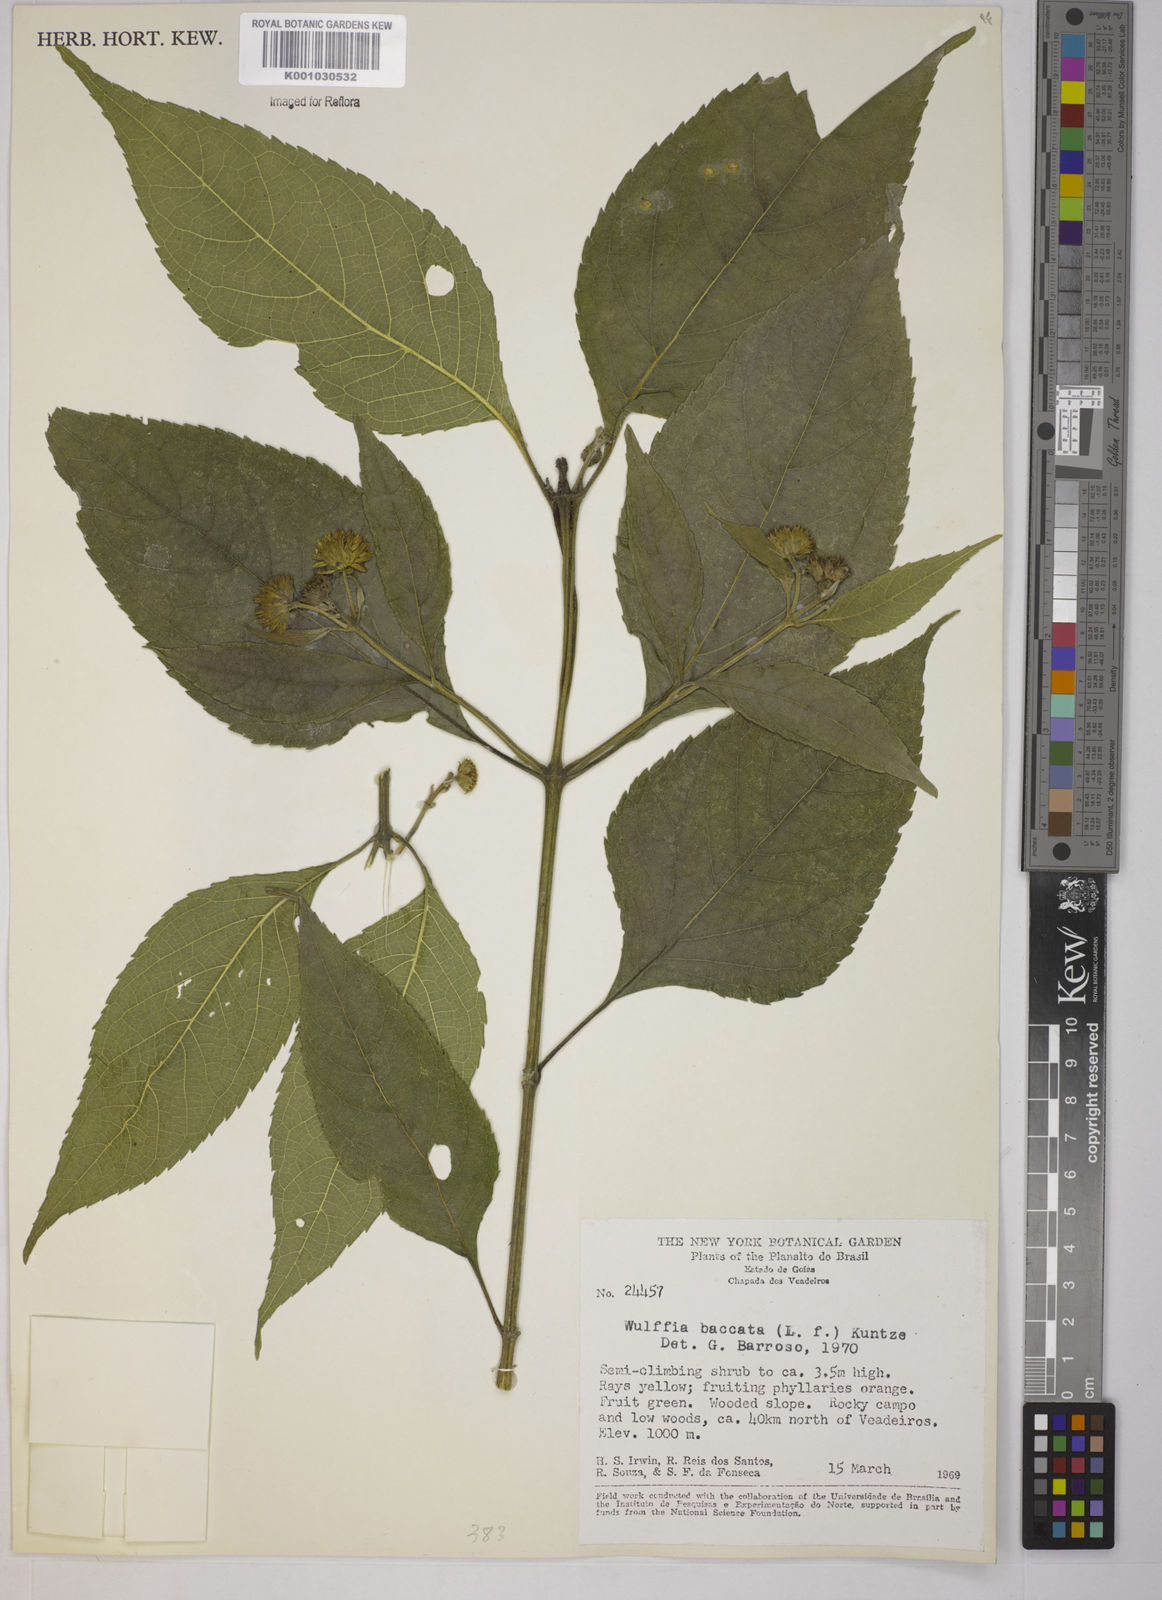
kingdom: Plantae
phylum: Tracheophyta
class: Magnoliopsida
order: Asterales
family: Asteraceae
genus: Tilesia
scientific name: Tilesia baccata
